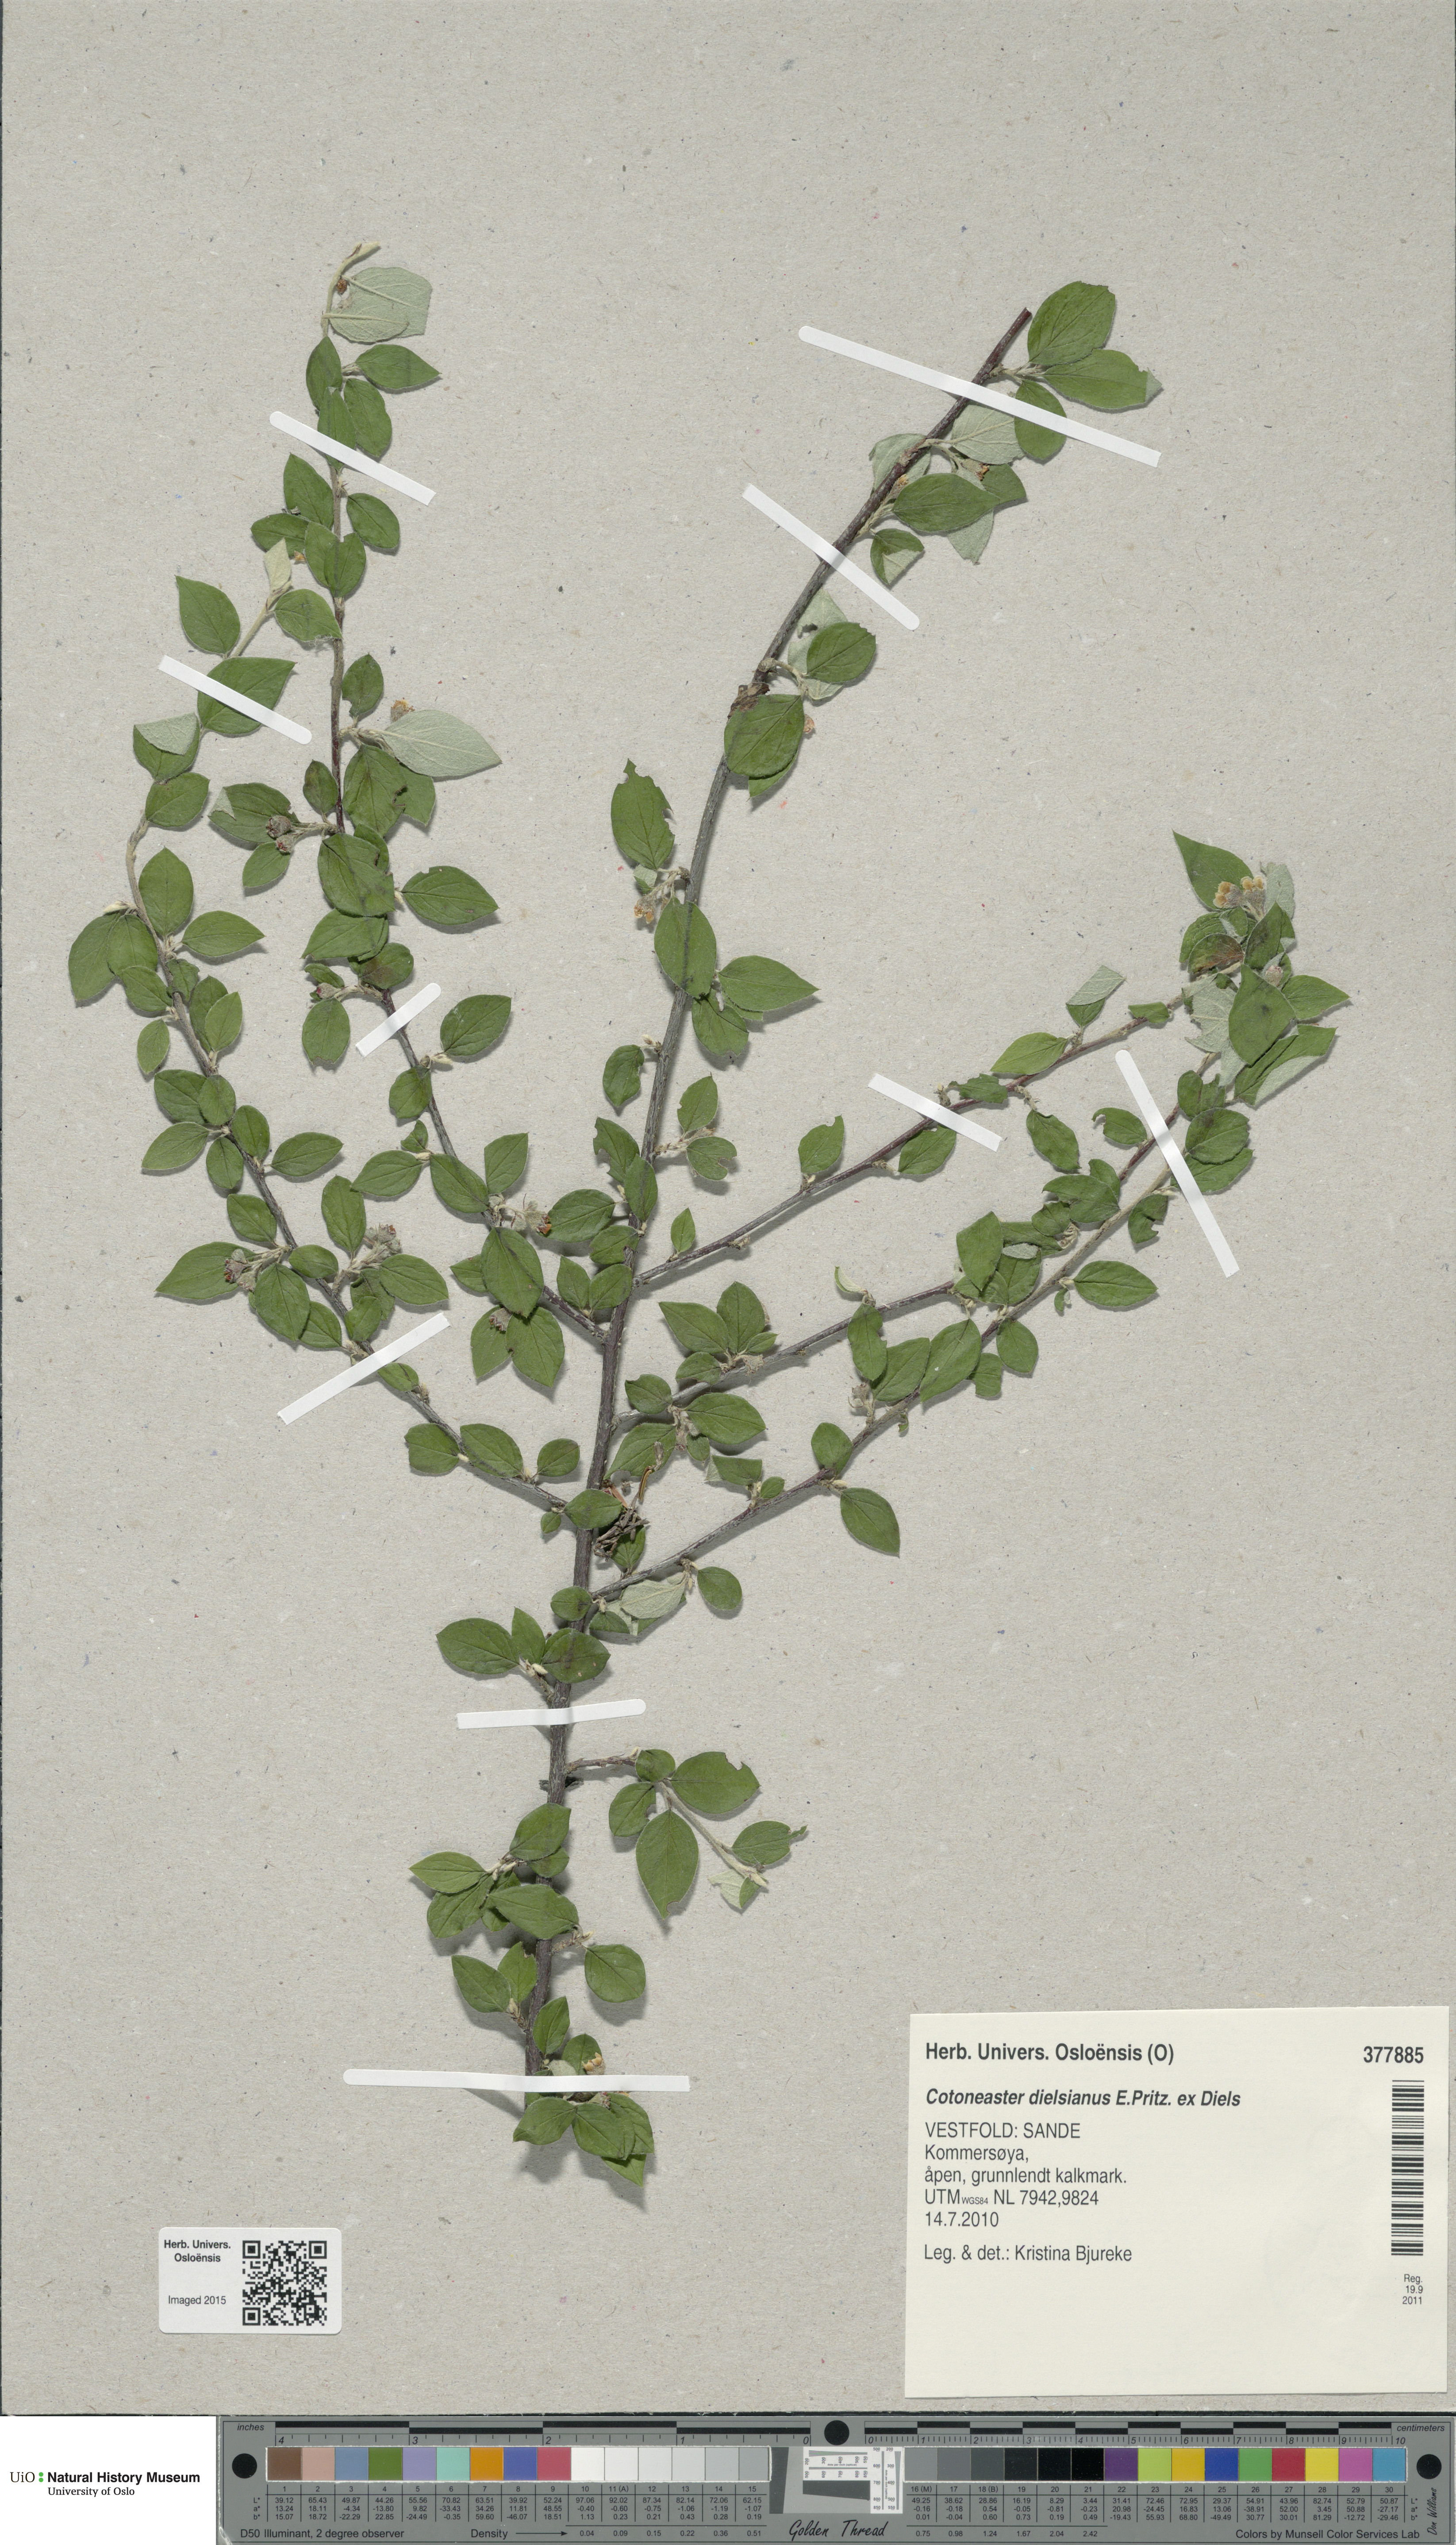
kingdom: Plantae
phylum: Tracheophyta
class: Magnoliopsida
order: Rosales
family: Rosaceae
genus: Cotoneaster
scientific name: Cotoneaster dielsianus
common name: Diels's cotoneaster
